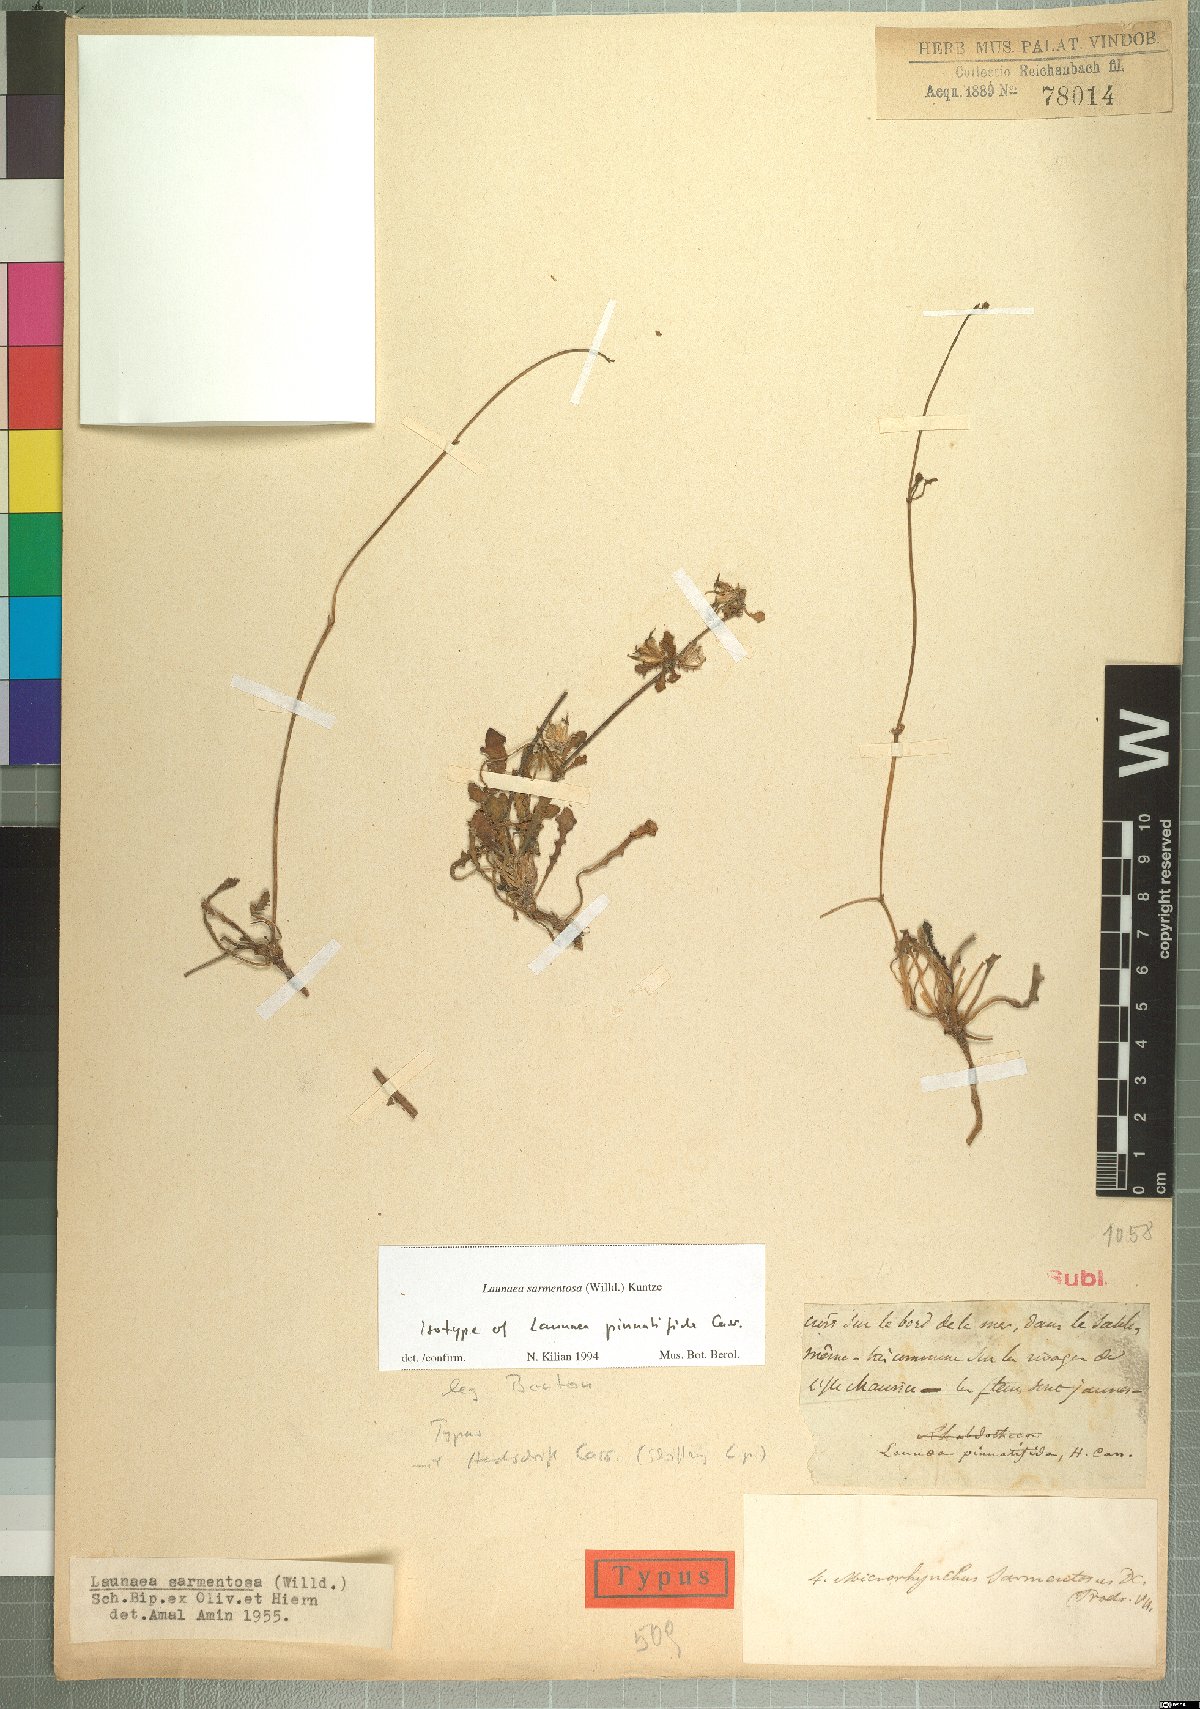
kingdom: Plantae
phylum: Tracheophyta
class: Magnoliopsida
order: Asterales
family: Asteraceae
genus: Launaea
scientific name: Launaea sarmentosa
